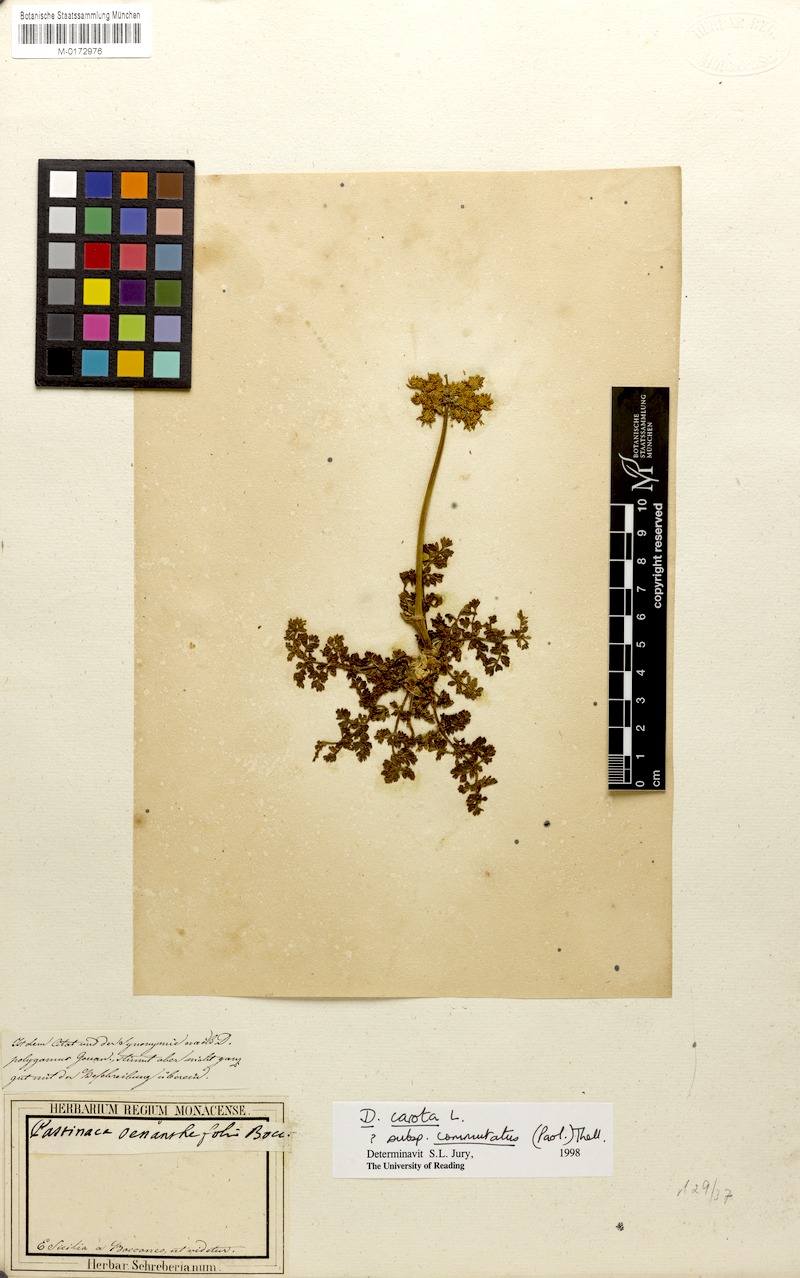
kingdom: Plantae
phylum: Tracheophyta
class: Magnoliopsida
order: Apiales
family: Apiaceae
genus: Daucus
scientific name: Daucus carota
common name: Wild carrot
